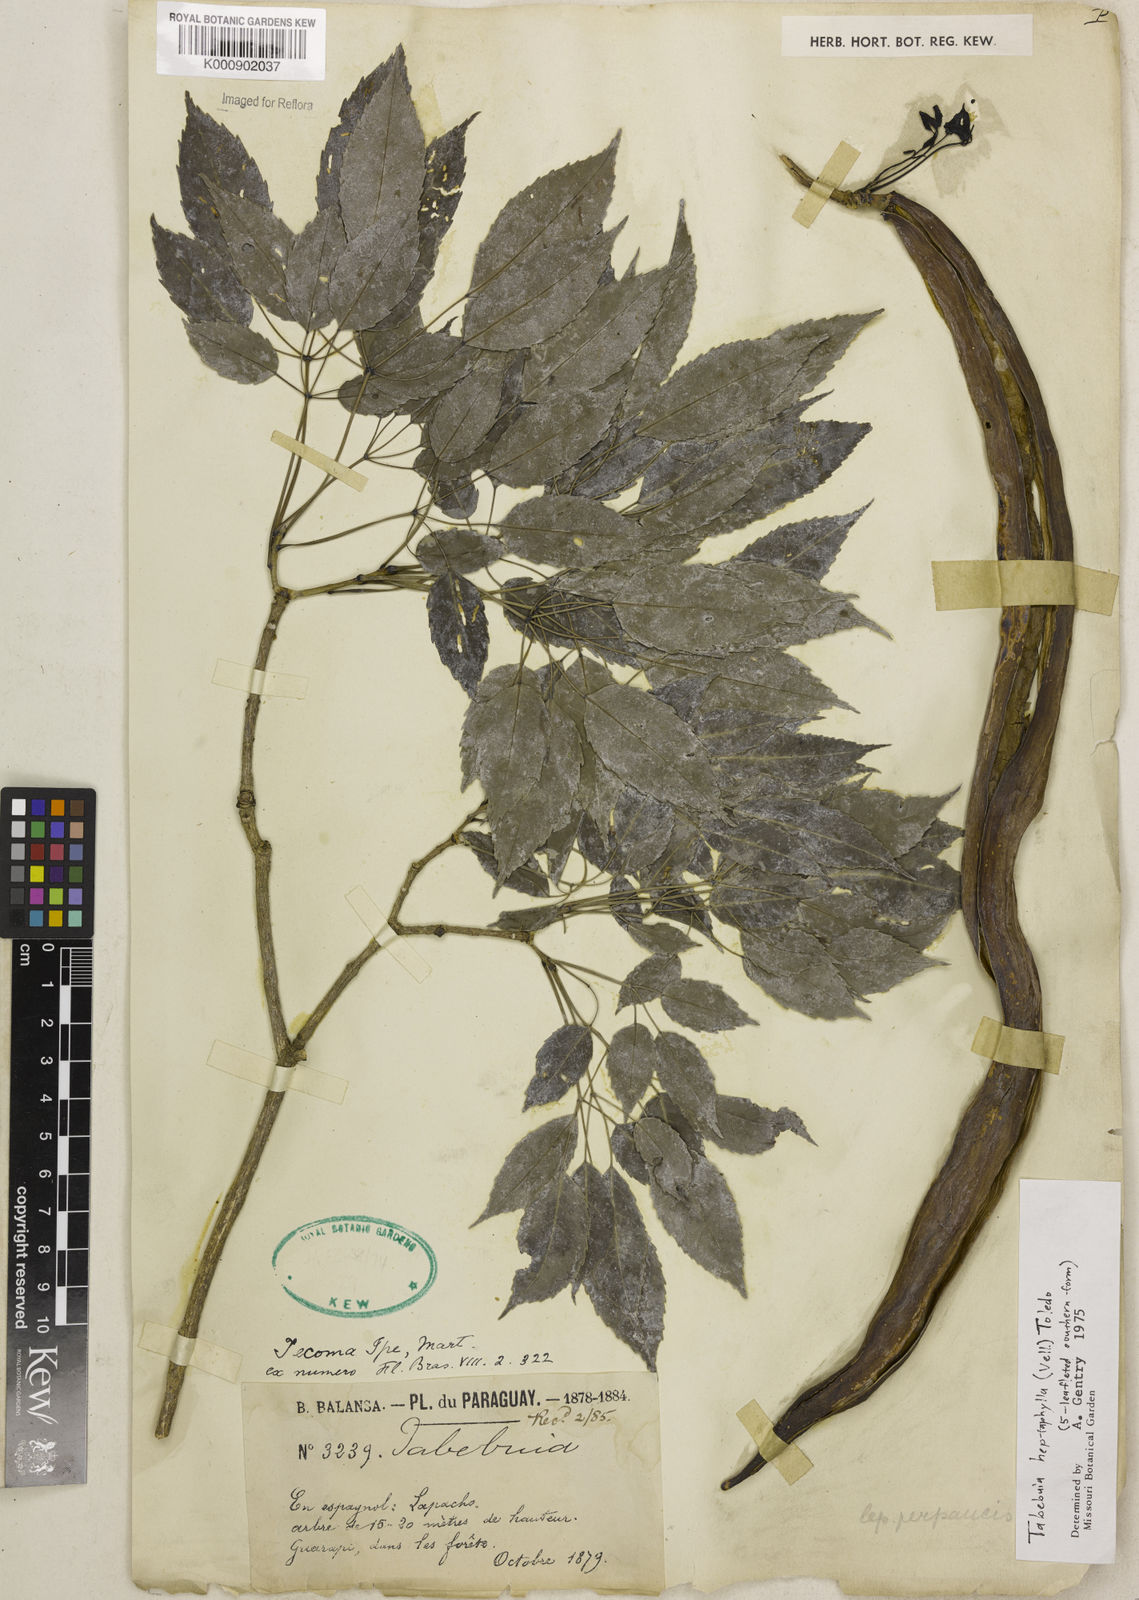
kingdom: Plantae
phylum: Tracheophyta
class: Magnoliopsida
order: Lamiales
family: Bignoniaceae
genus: Handroanthus
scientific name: Handroanthus heptaphyllus
